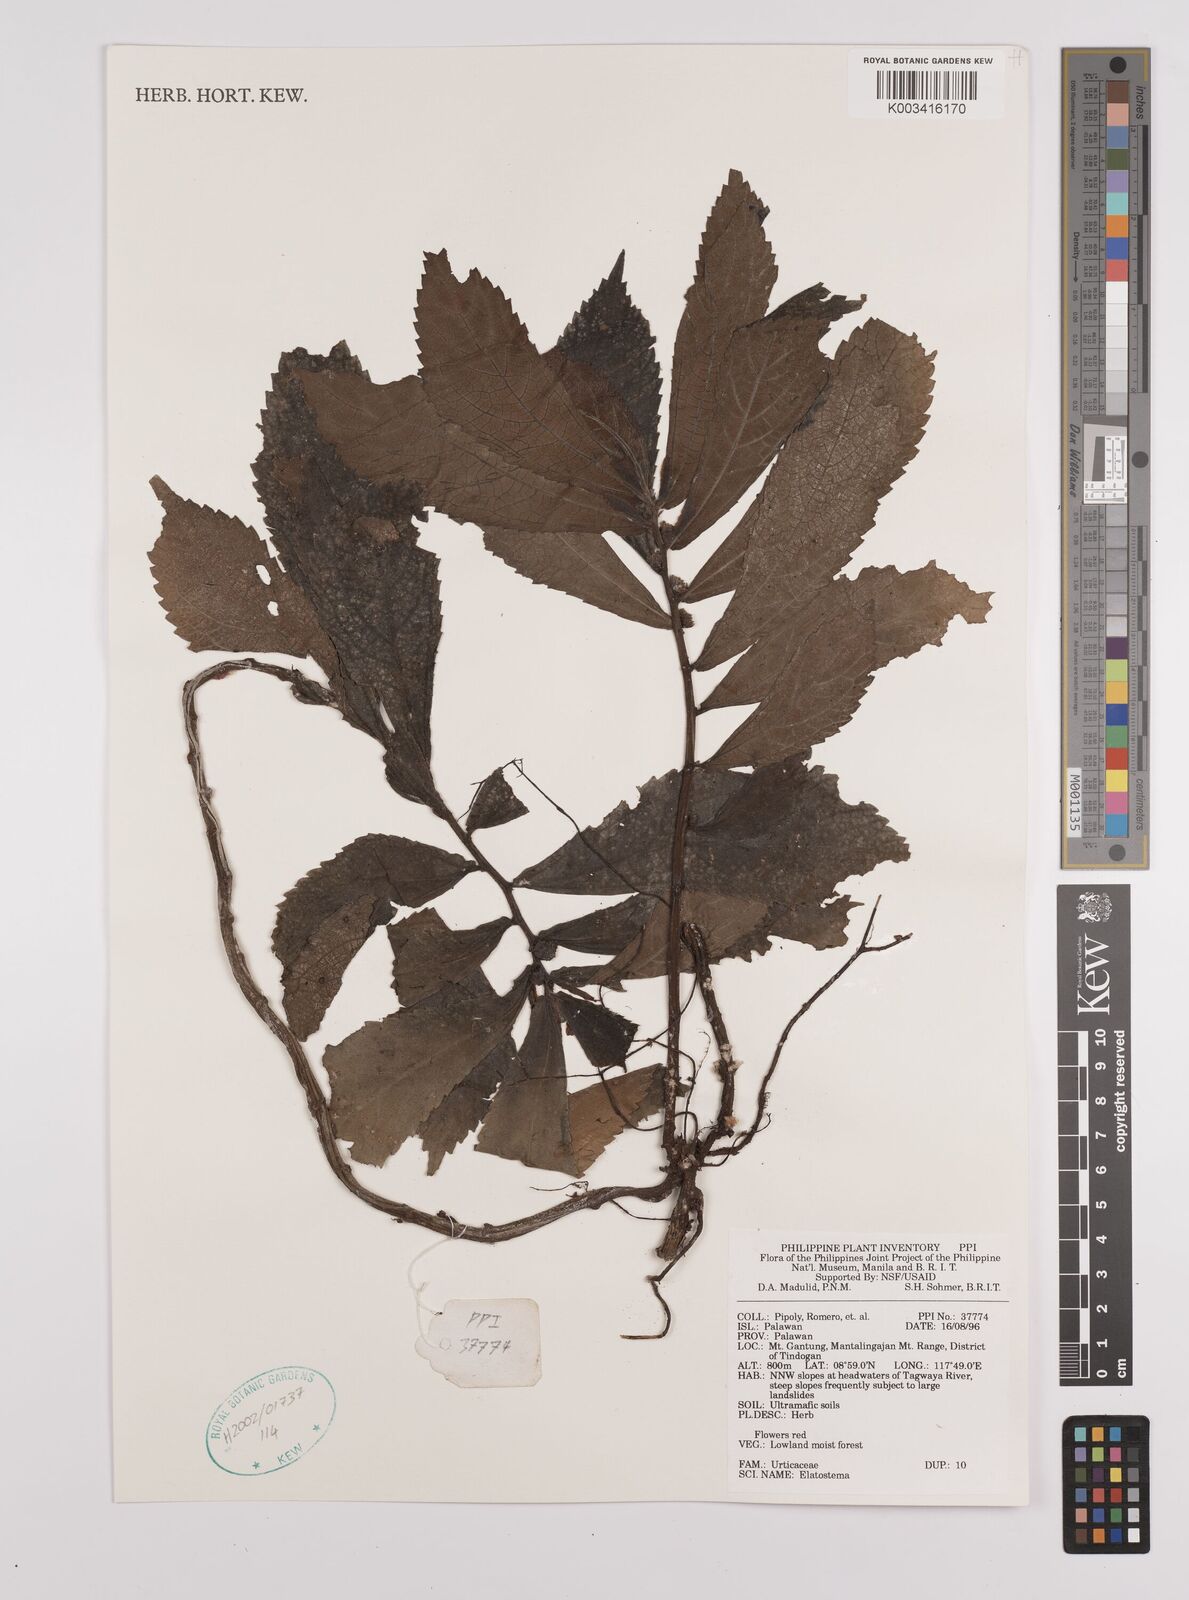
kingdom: Plantae
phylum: Tracheophyta
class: Magnoliopsida
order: Rosales
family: Urticaceae
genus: Elatostema
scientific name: Elatostema
